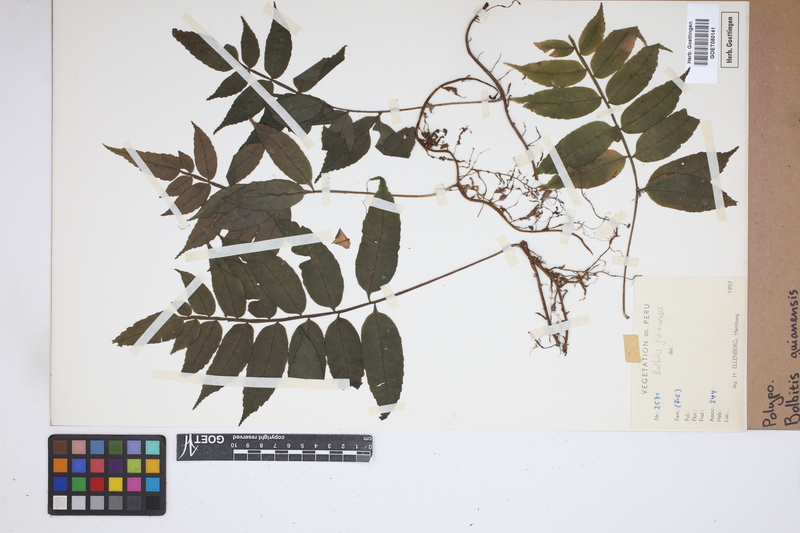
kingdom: Plantae
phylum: Tracheophyta
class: Polypodiopsida
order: Polypodiales
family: Dryopteridaceae
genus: Mickelia
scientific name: Mickelia guianensis
